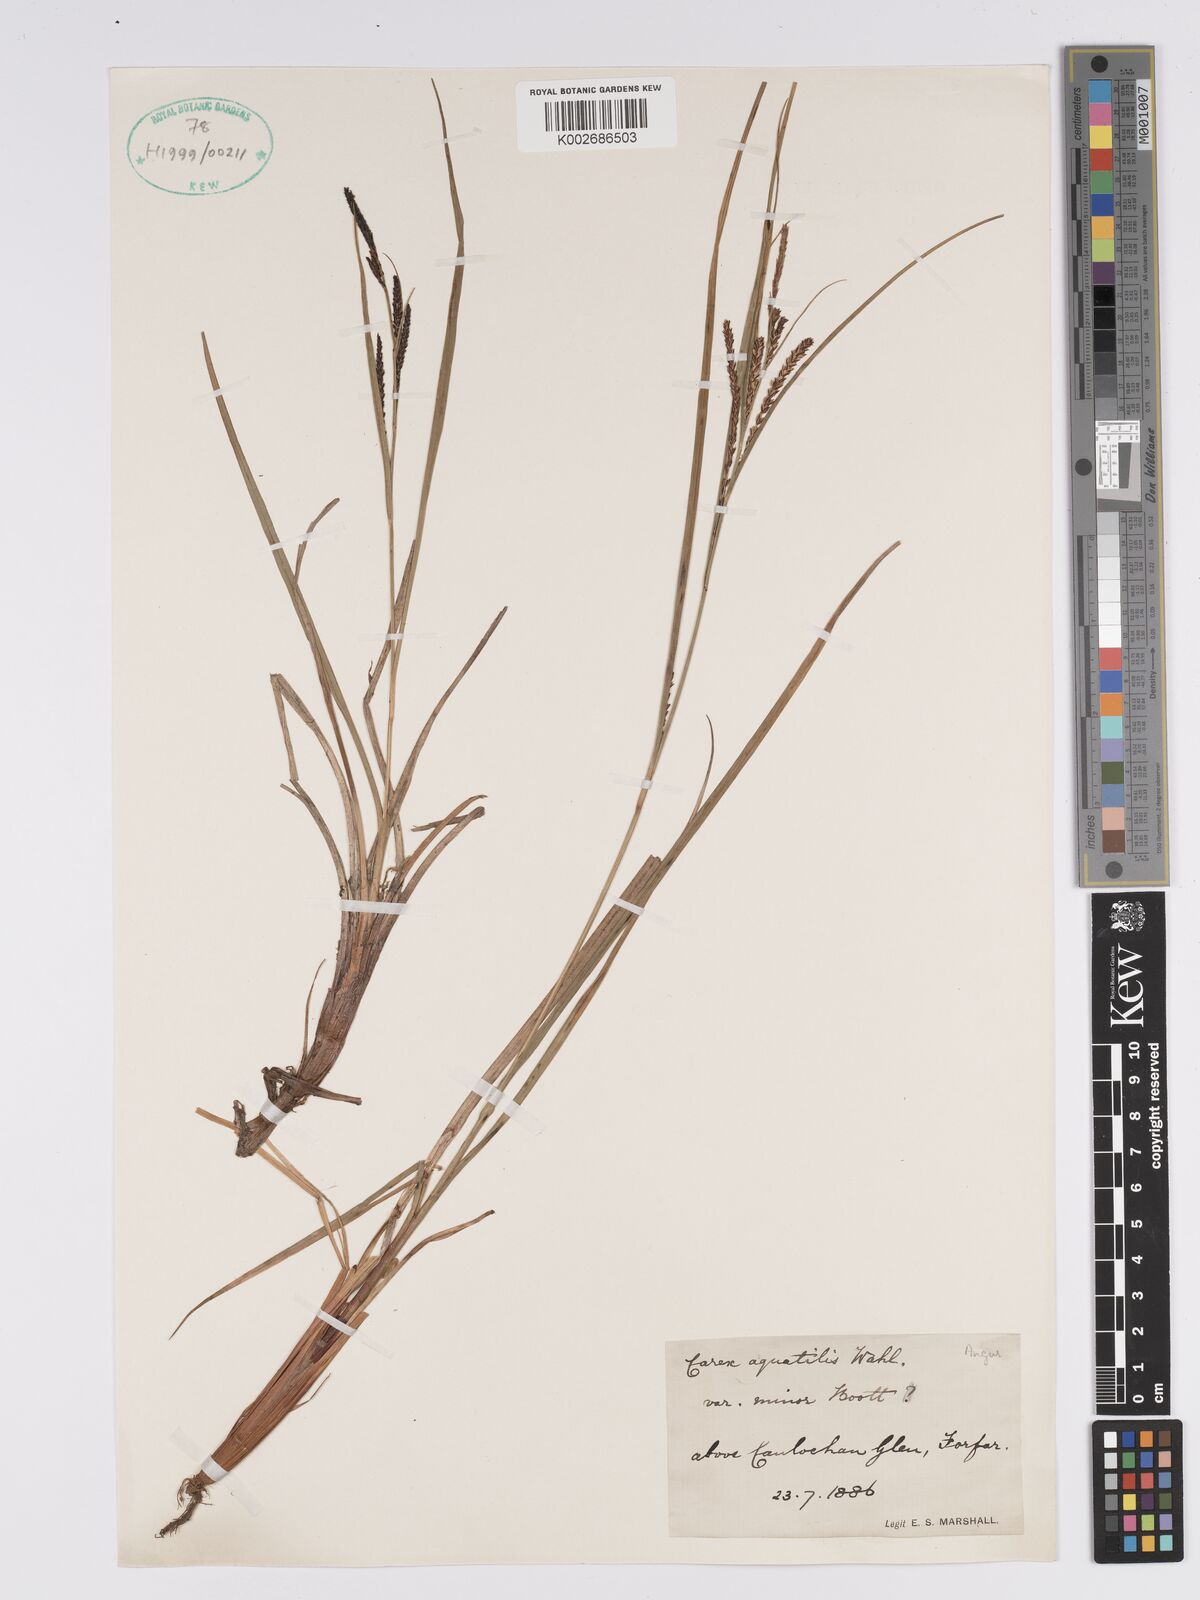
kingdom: Plantae
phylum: Tracheophyta
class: Liliopsida
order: Poales
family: Cyperaceae
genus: Carex
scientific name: Carex aquatilis
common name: Water sedge
